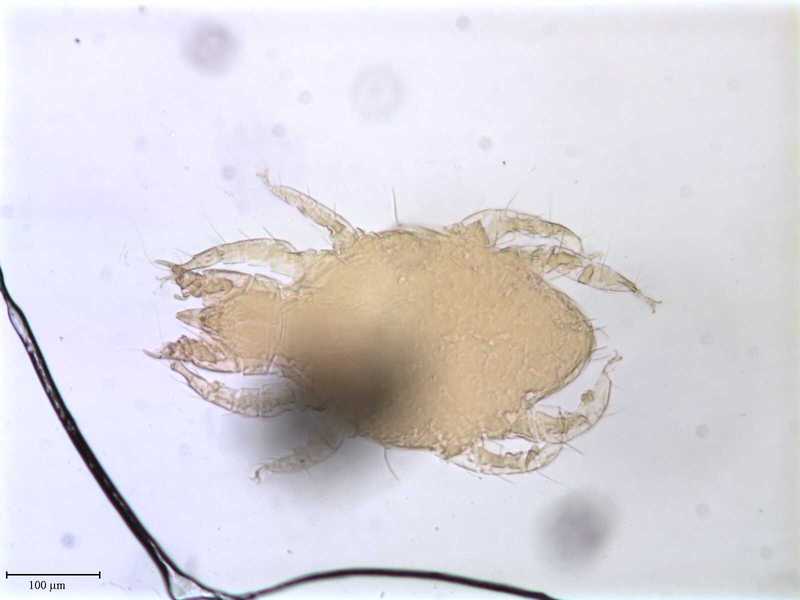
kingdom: Animalia
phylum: Arthropoda
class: Arachnida
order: Trombidiformes
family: Cheyletidae
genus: Cheletophyes
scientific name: Cheletophyes vitzthumi
